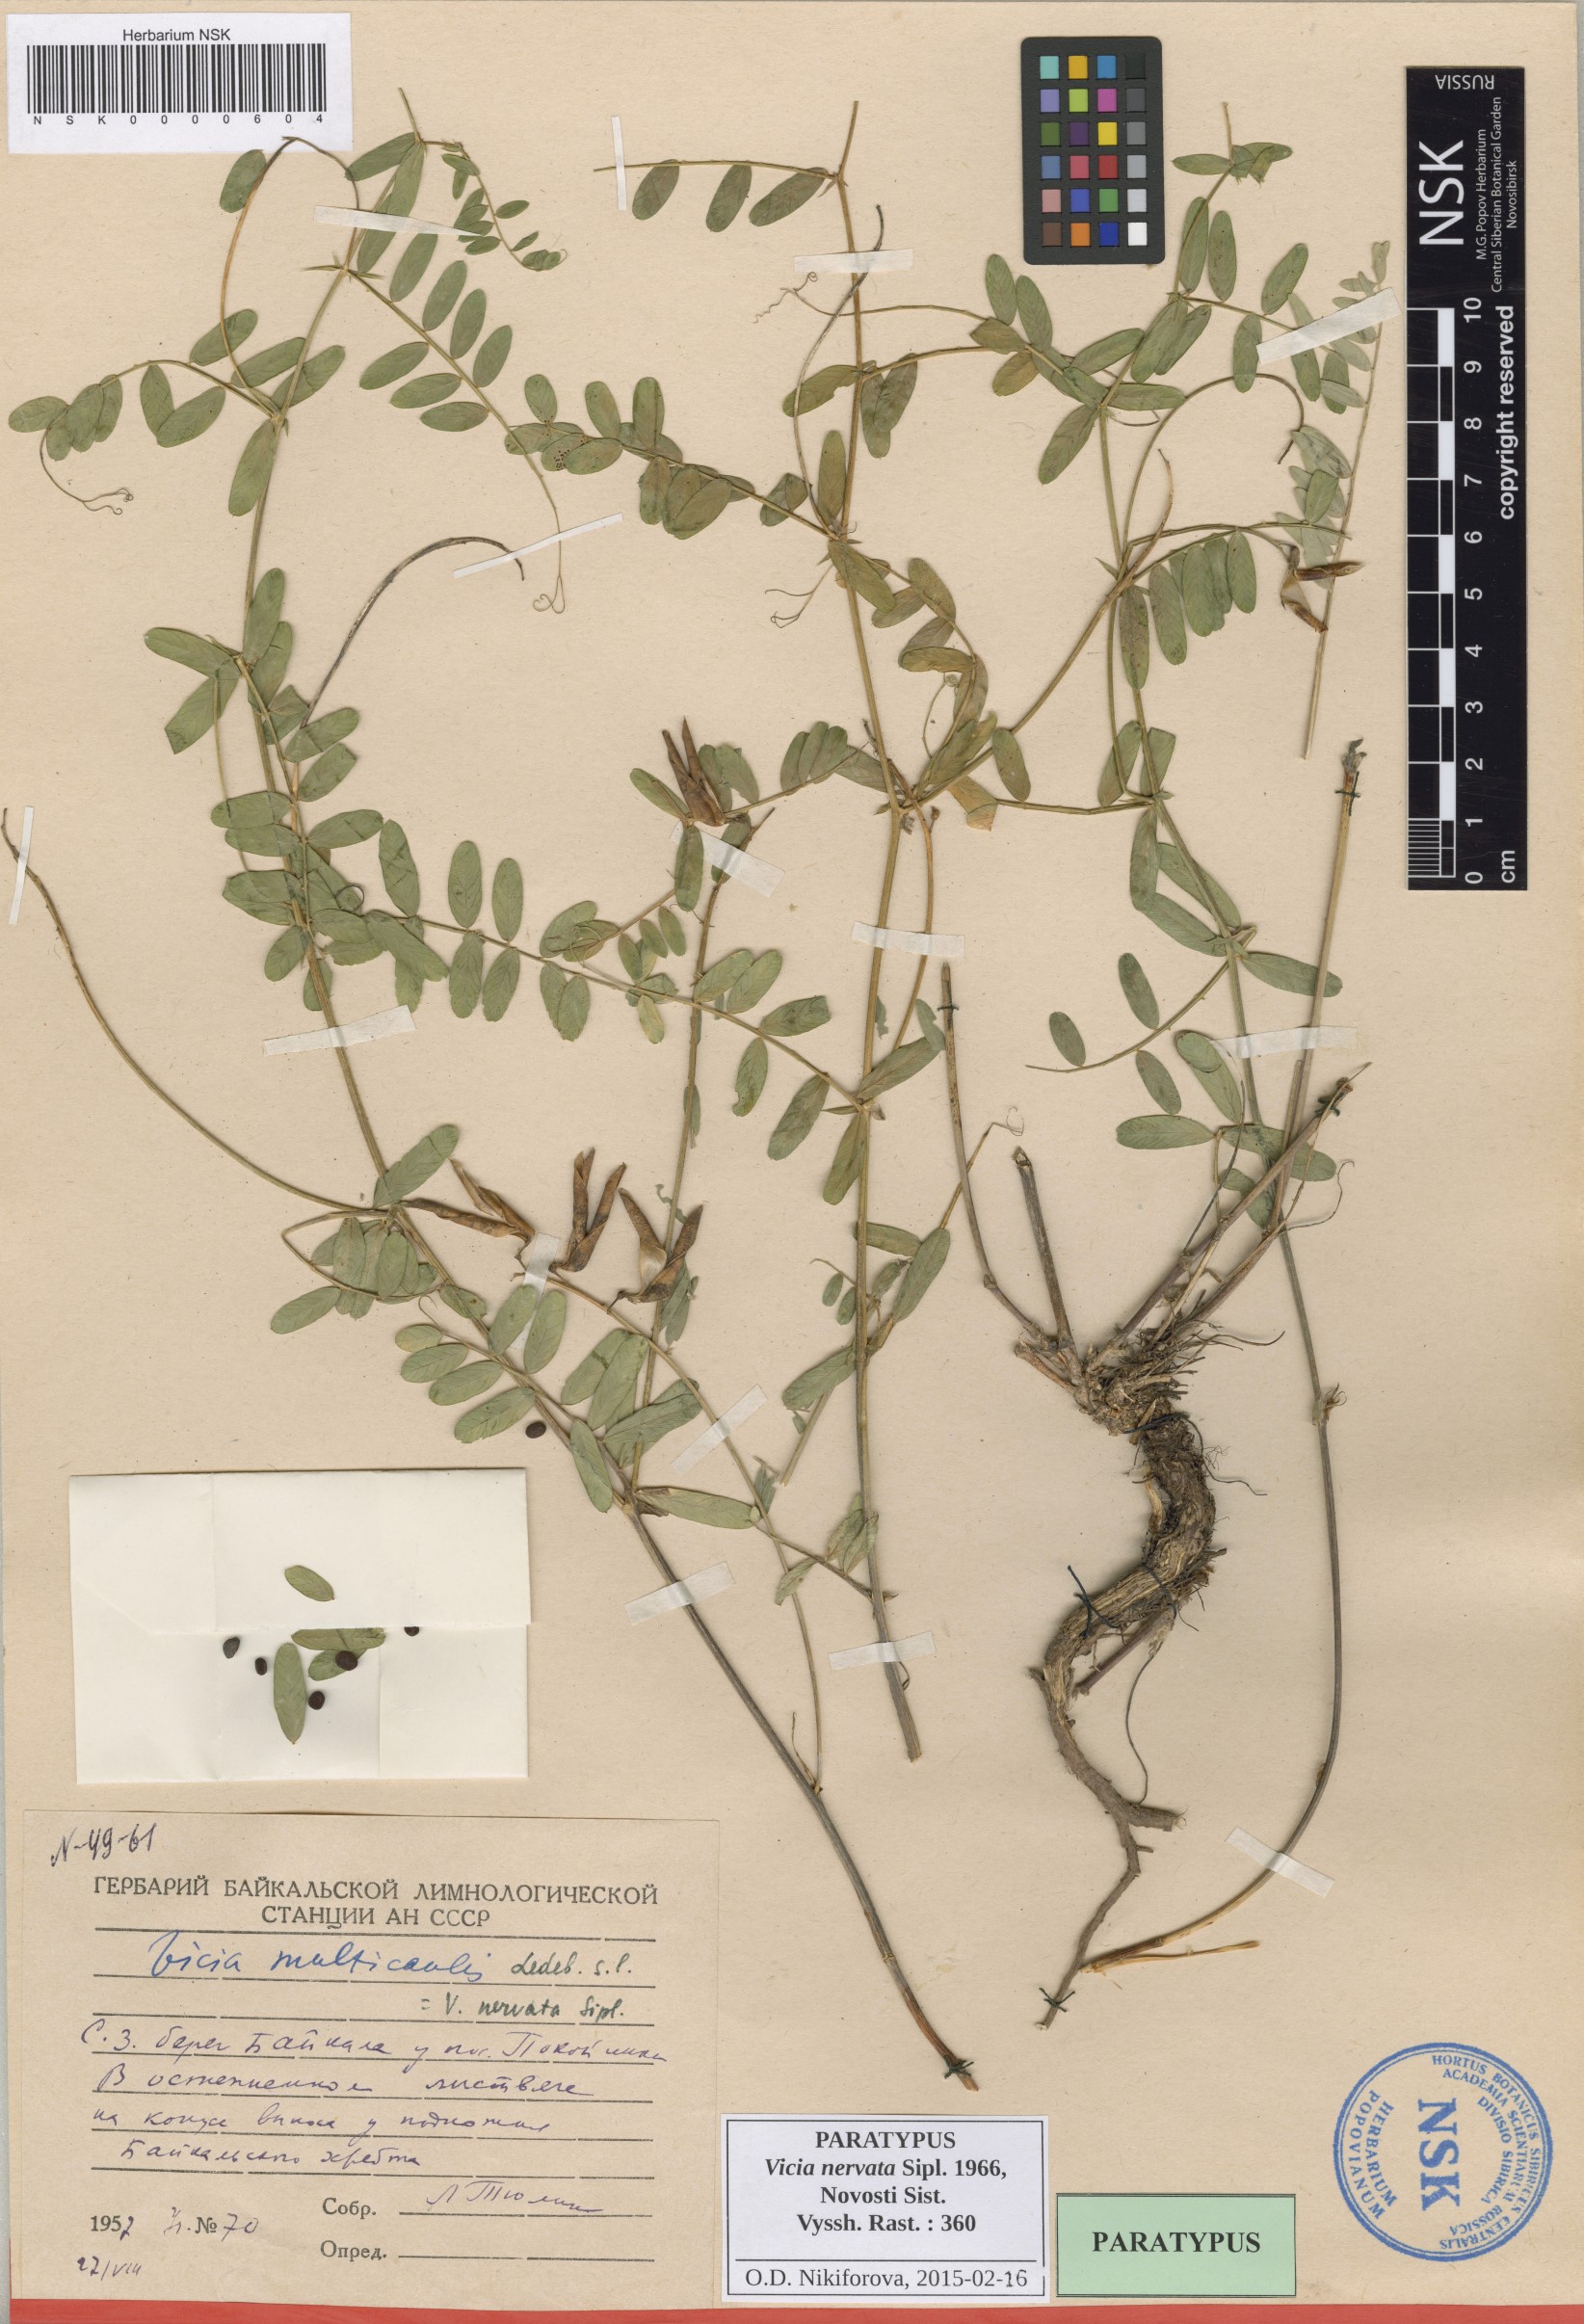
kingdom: Plantae
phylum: Tracheophyta
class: Magnoliopsida
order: Fabales
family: Fabaceae
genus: Vicia
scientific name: Vicia multicaulis
